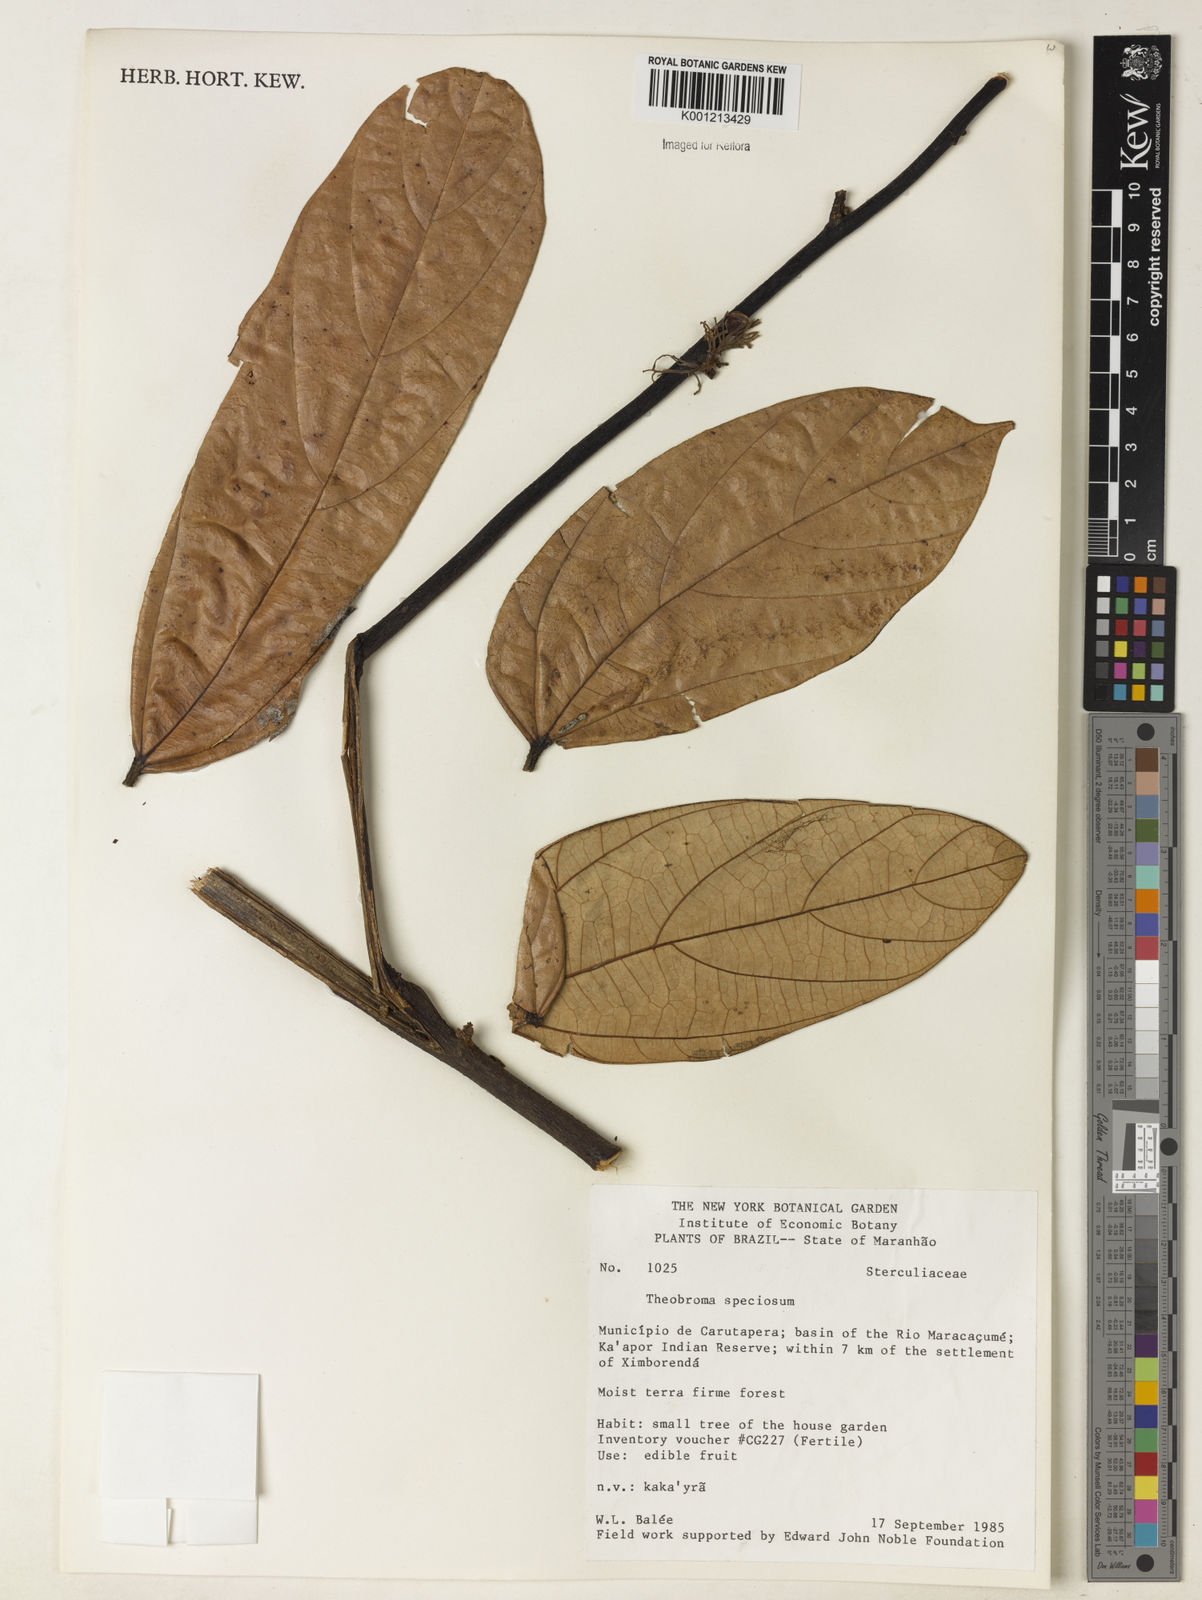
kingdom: Plantae
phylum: Tracheophyta
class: Magnoliopsida
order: Malvales
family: Malvaceae
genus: Theobroma
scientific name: Theobroma speciosum
